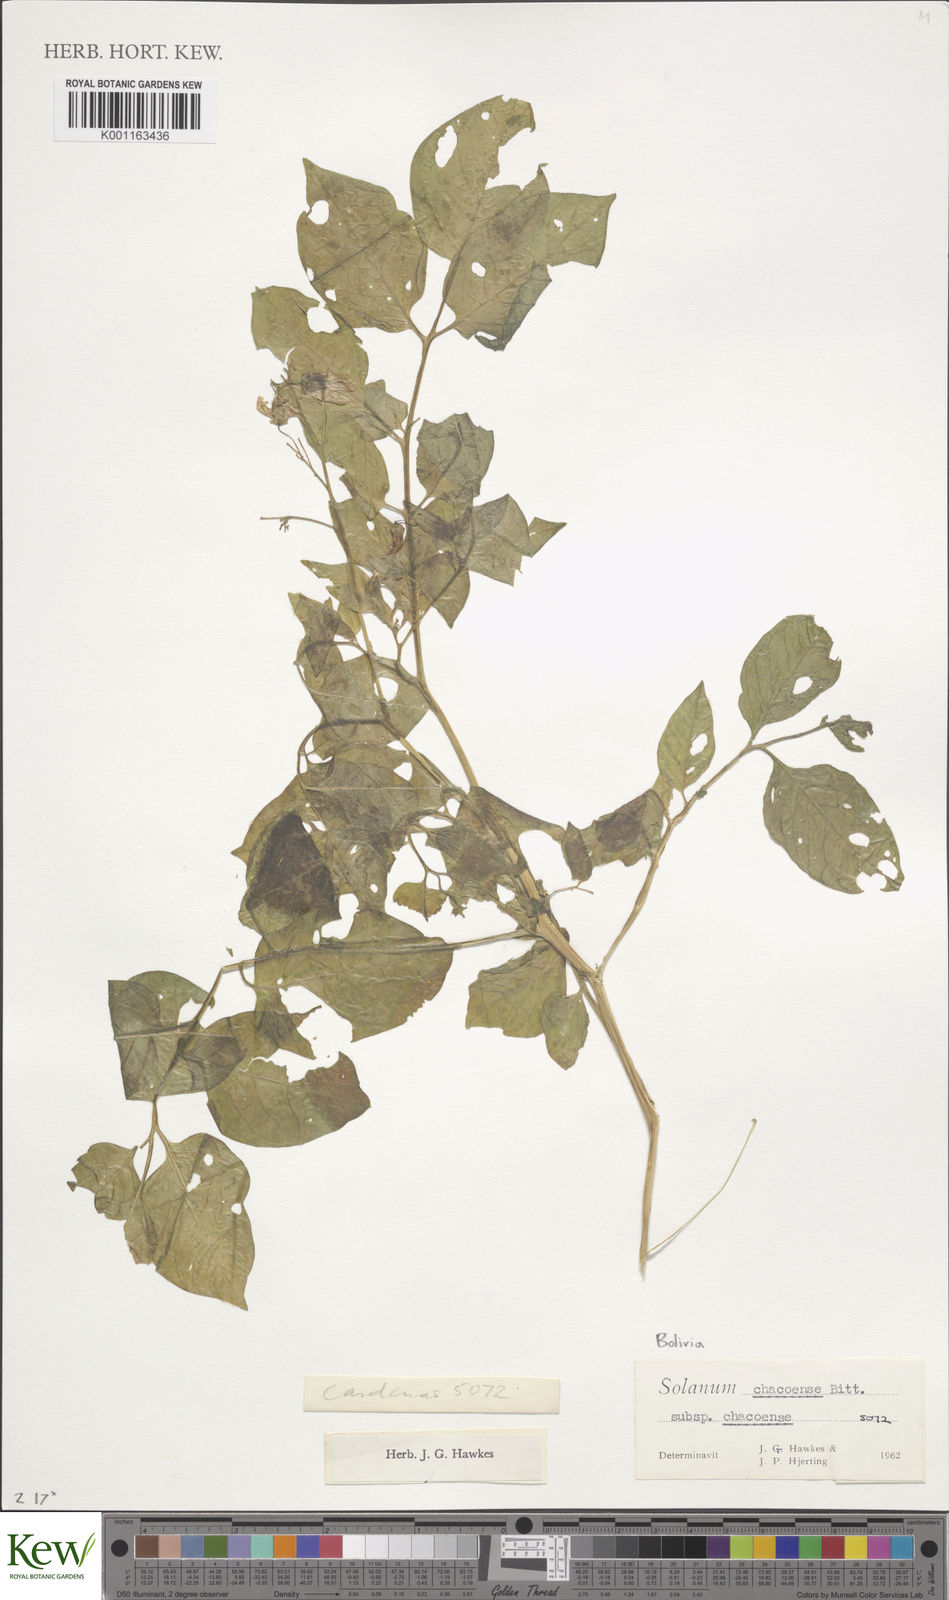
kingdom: Plantae
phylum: Tracheophyta
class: Magnoliopsida
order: Solanales
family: Solanaceae
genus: Solanum
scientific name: Solanum chacoense
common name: Chaco potato
